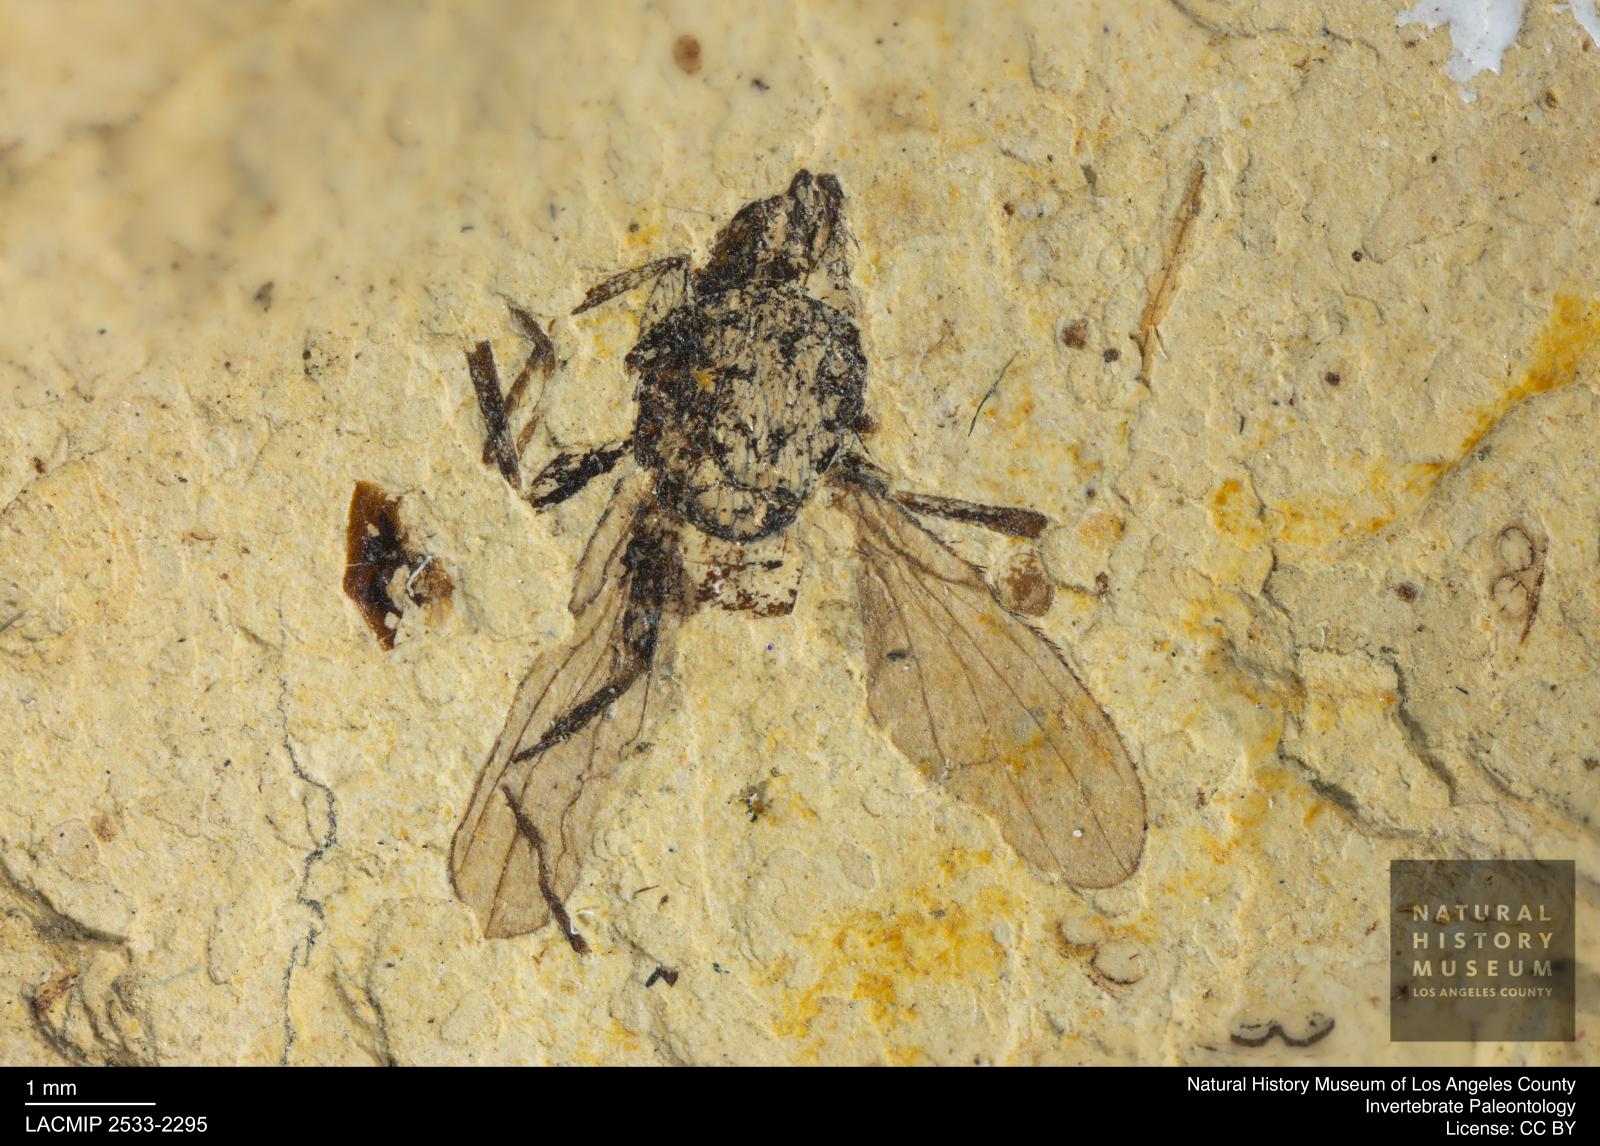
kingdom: Animalia
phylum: Arthropoda
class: Insecta
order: Diptera
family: Heleomyzidae
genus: Heleomyza
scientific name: Heleomyza Leria bauckhorni
